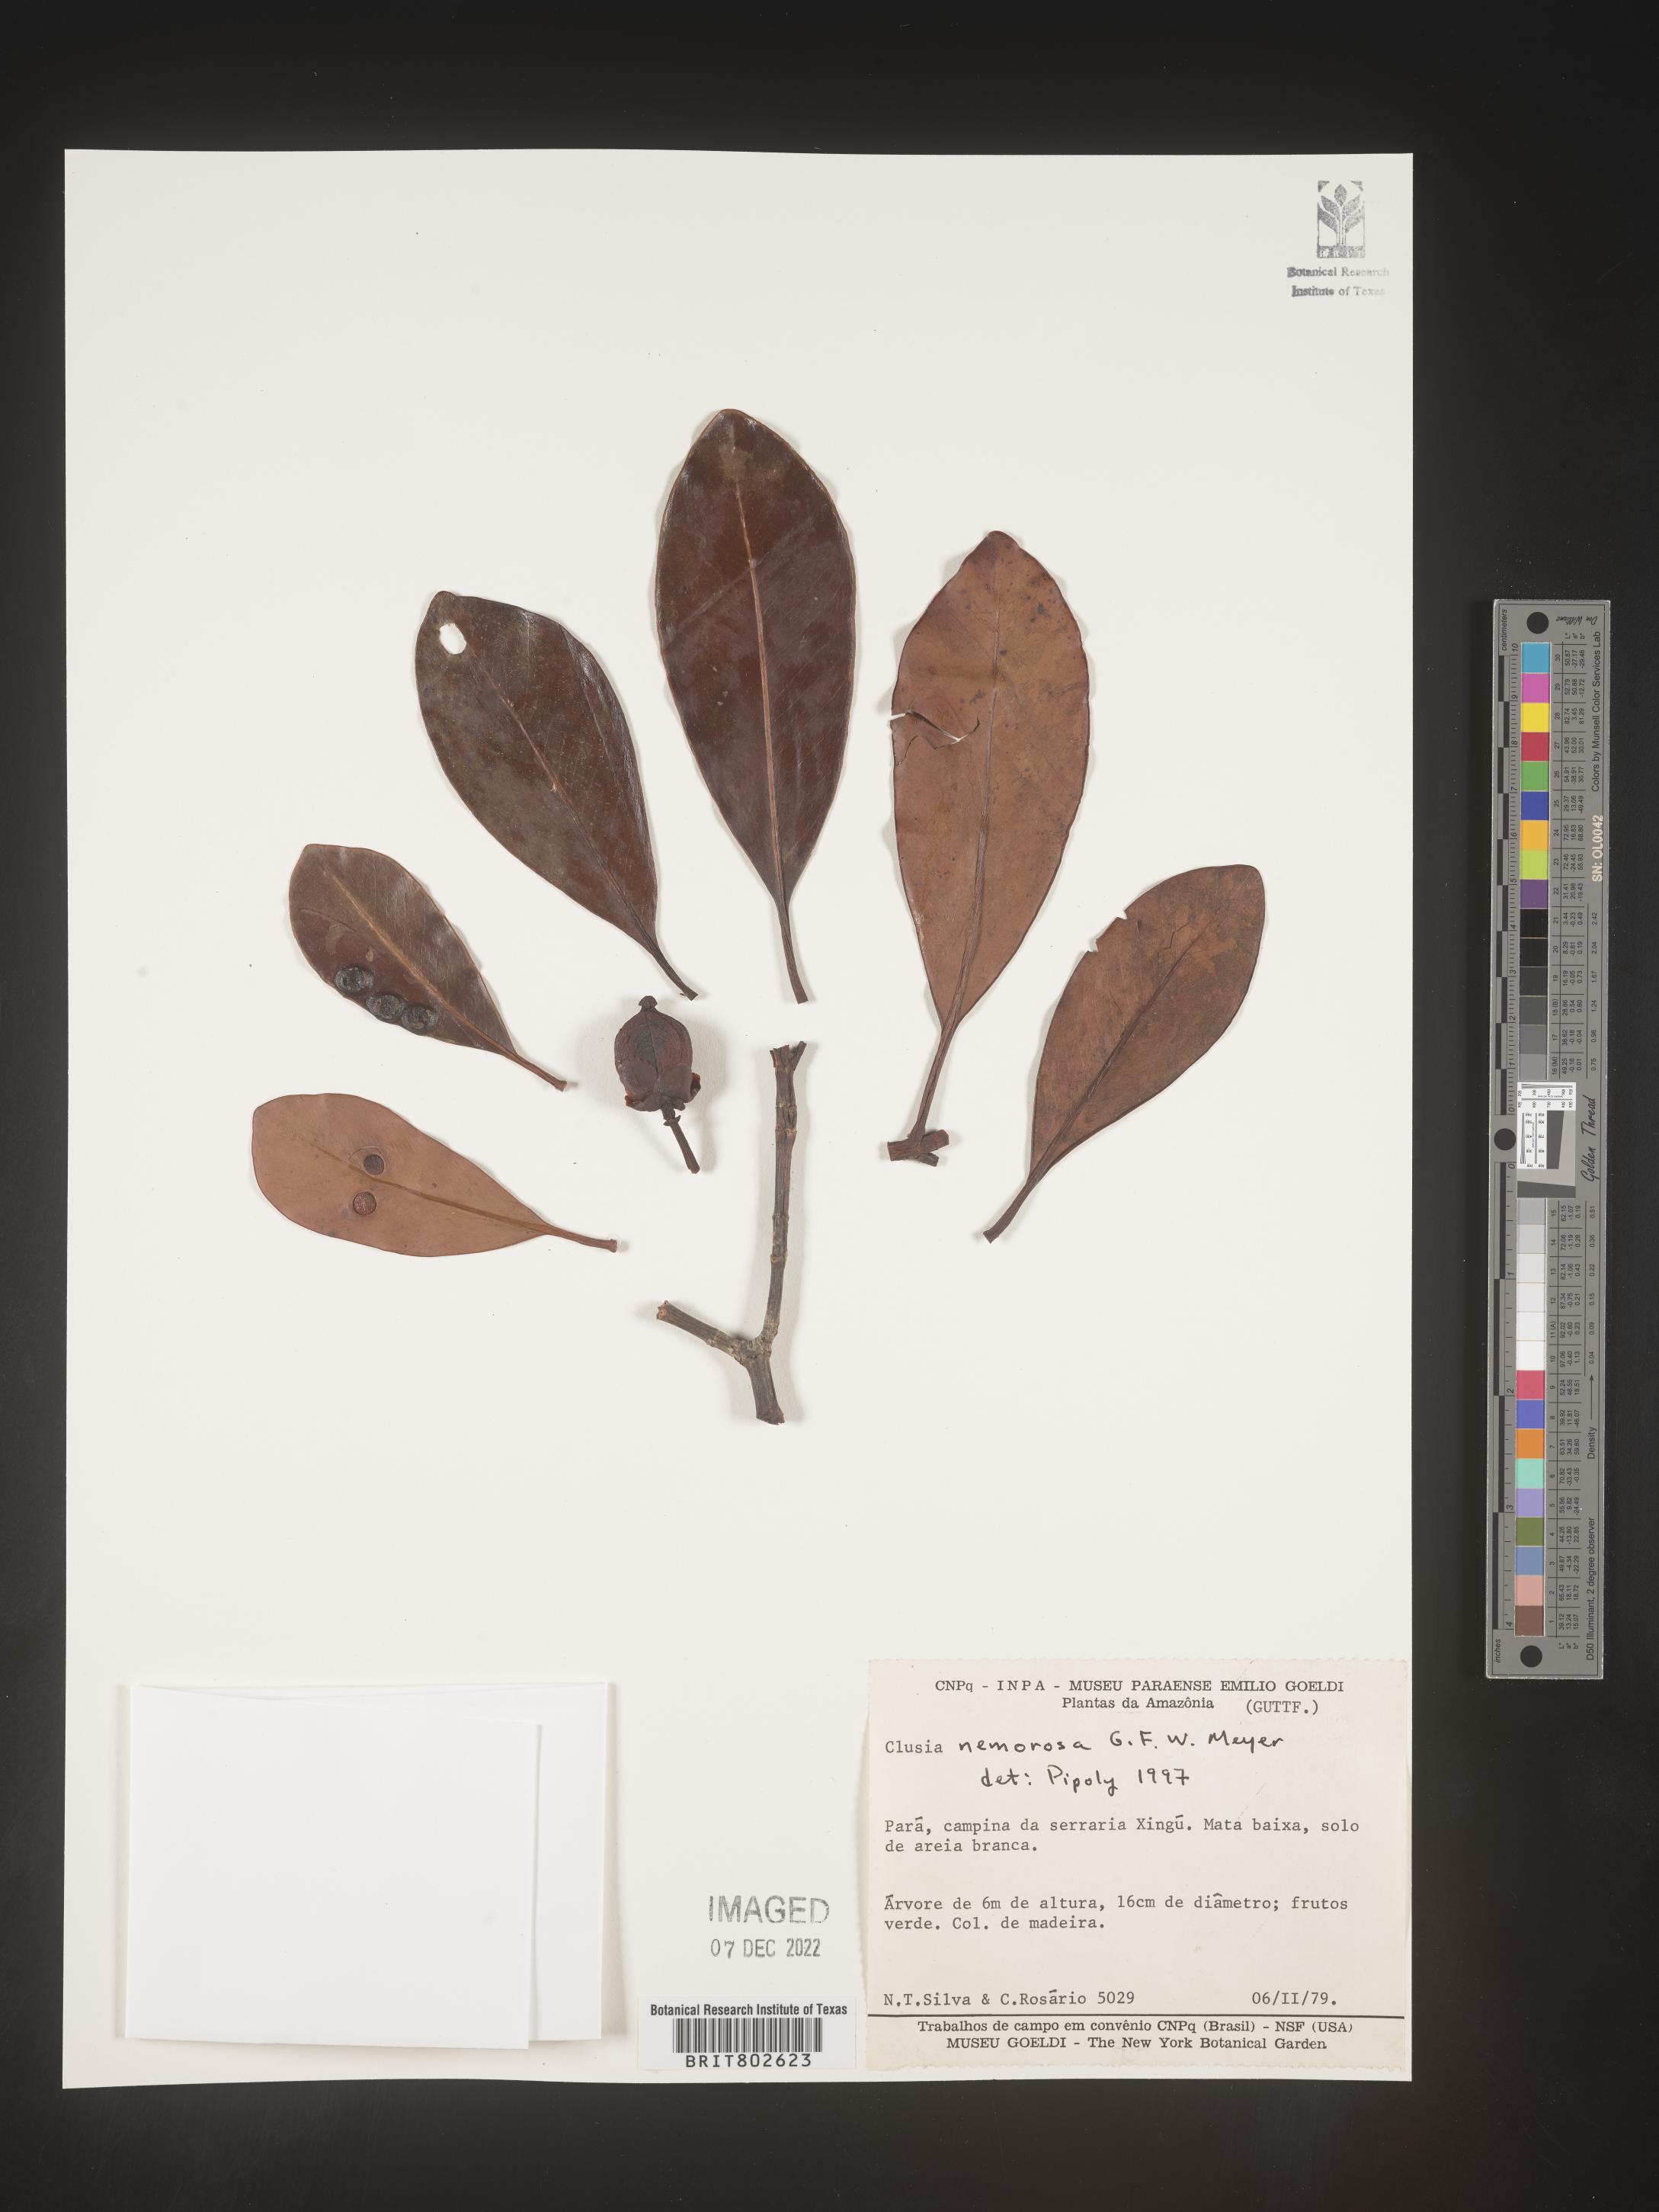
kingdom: Plantae
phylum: Tracheophyta
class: Magnoliopsida
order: Malpighiales
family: Clusiaceae
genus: Clusia
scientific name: Clusia nemorosa
